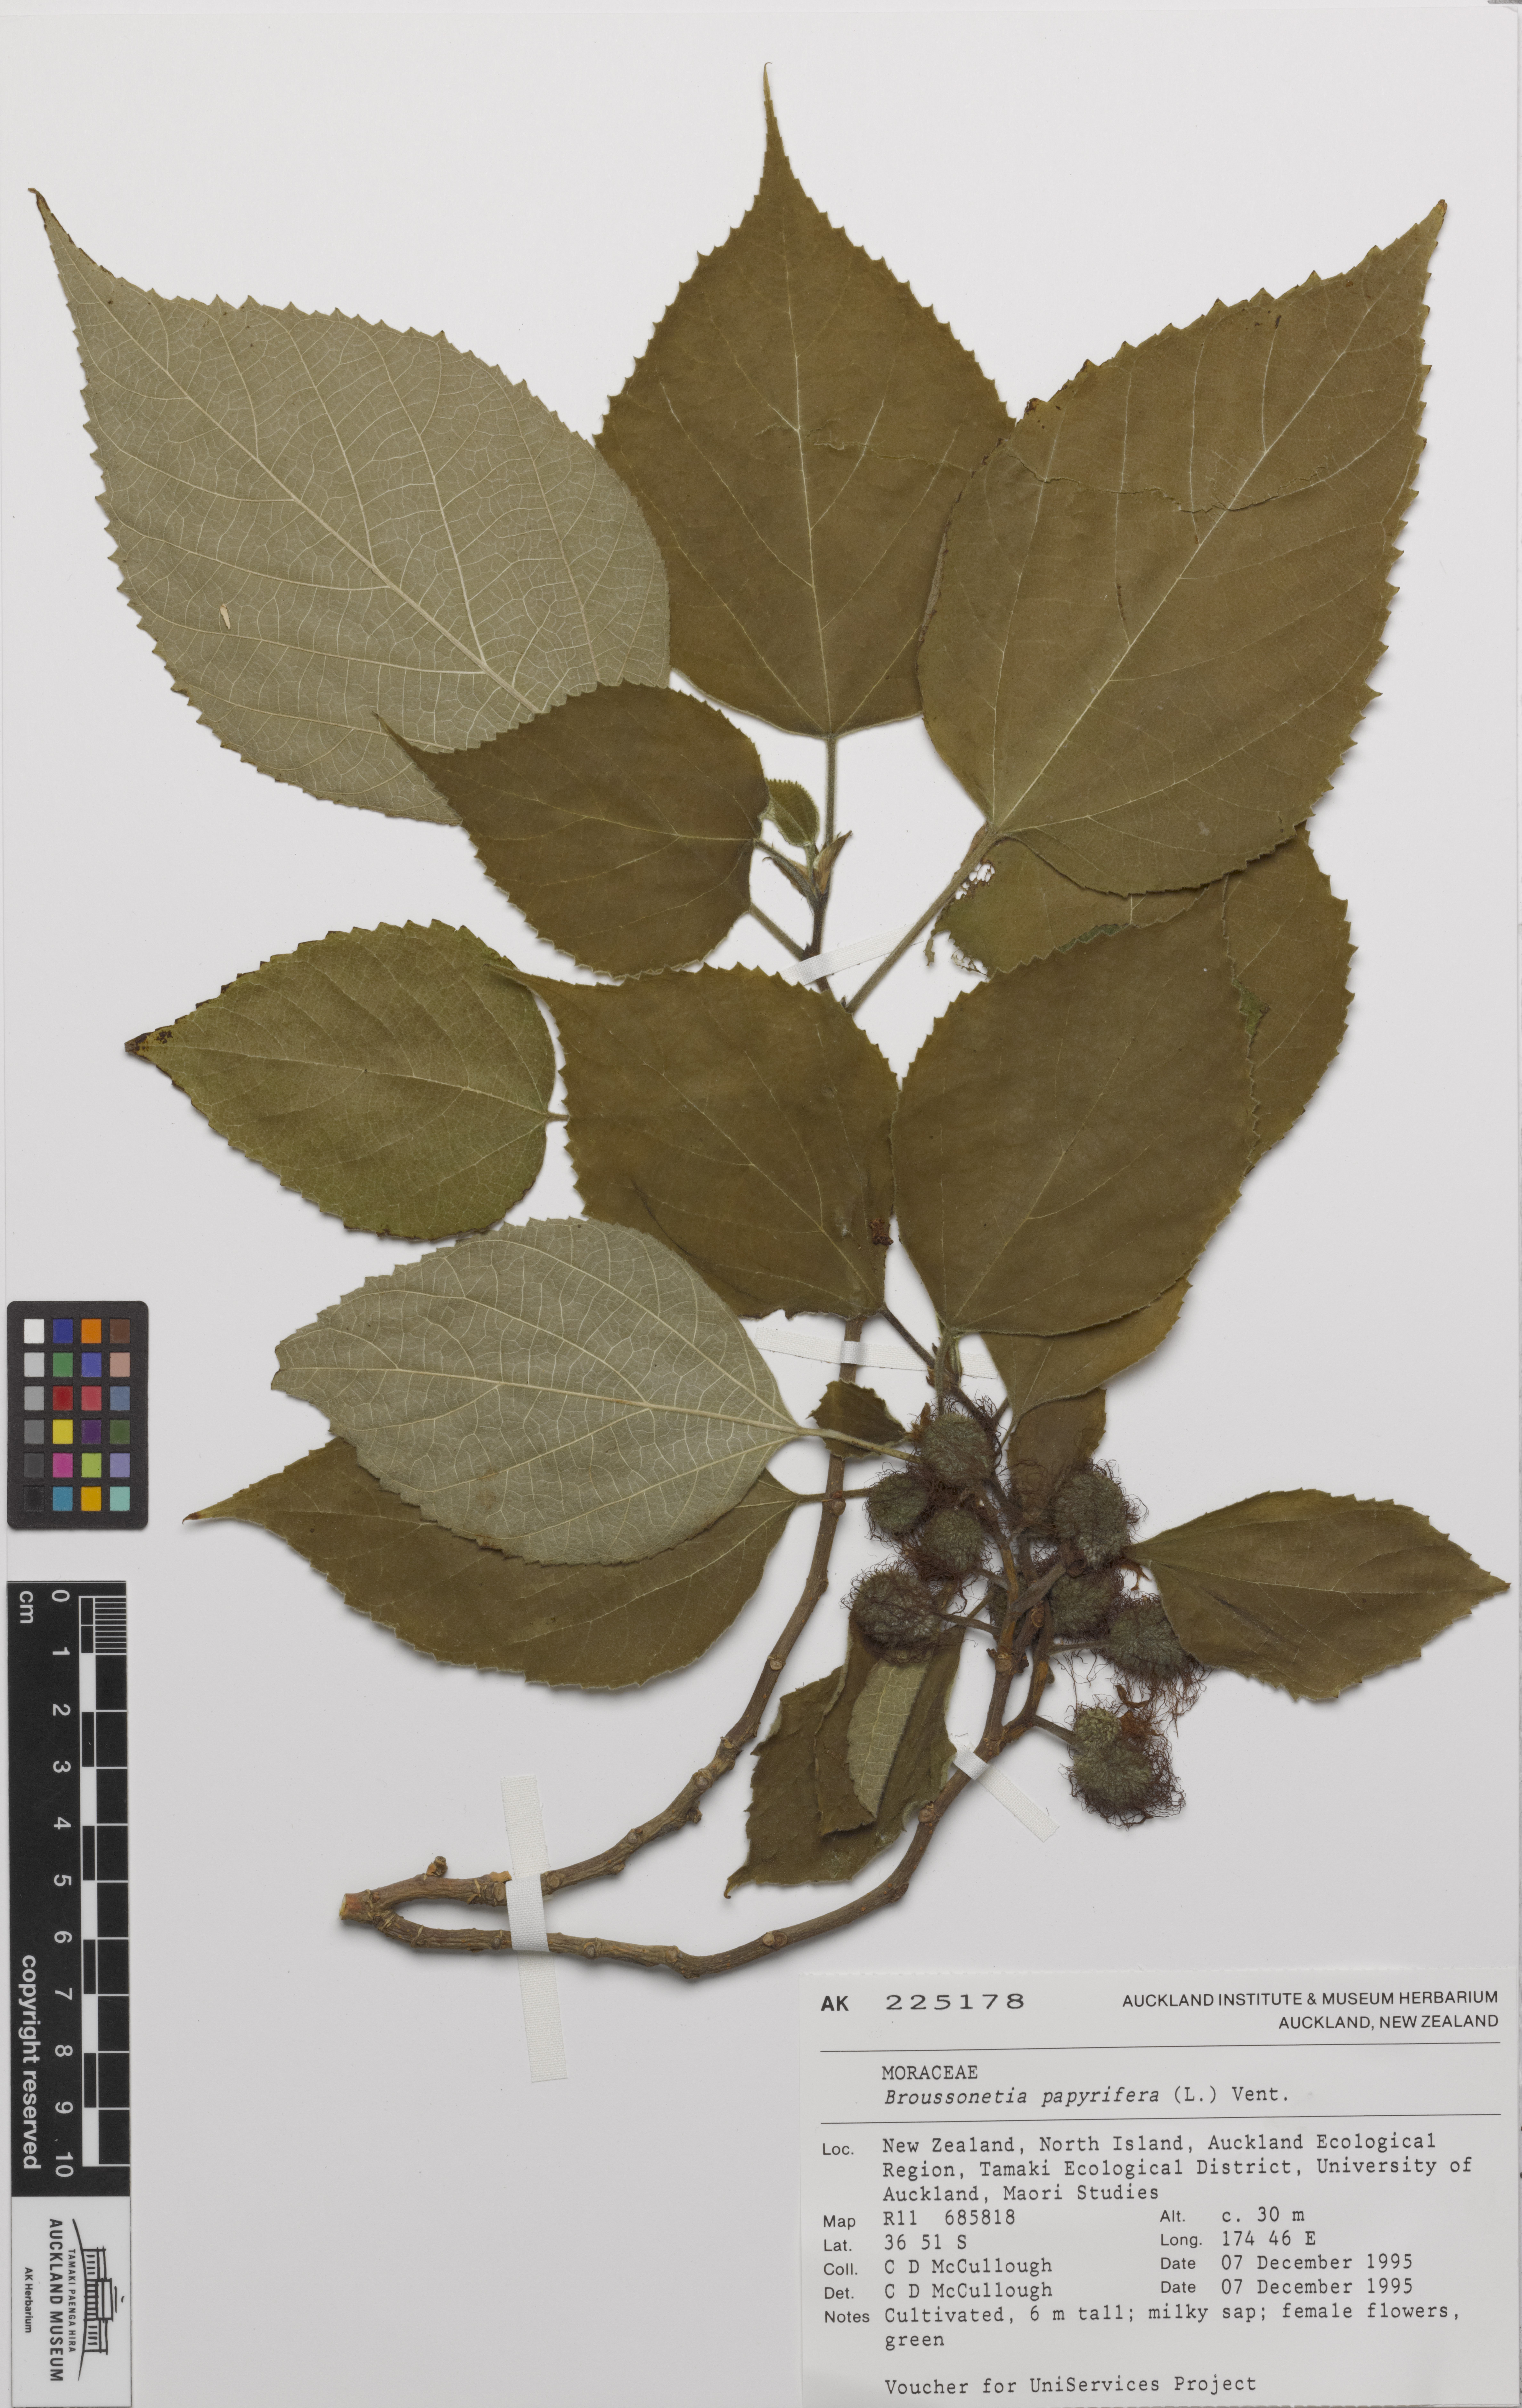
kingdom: Plantae
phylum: Tracheophyta
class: Magnoliopsida
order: Rosales
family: Moraceae
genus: Broussonetia
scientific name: Broussonetia papyrifera
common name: Paper mulberry
